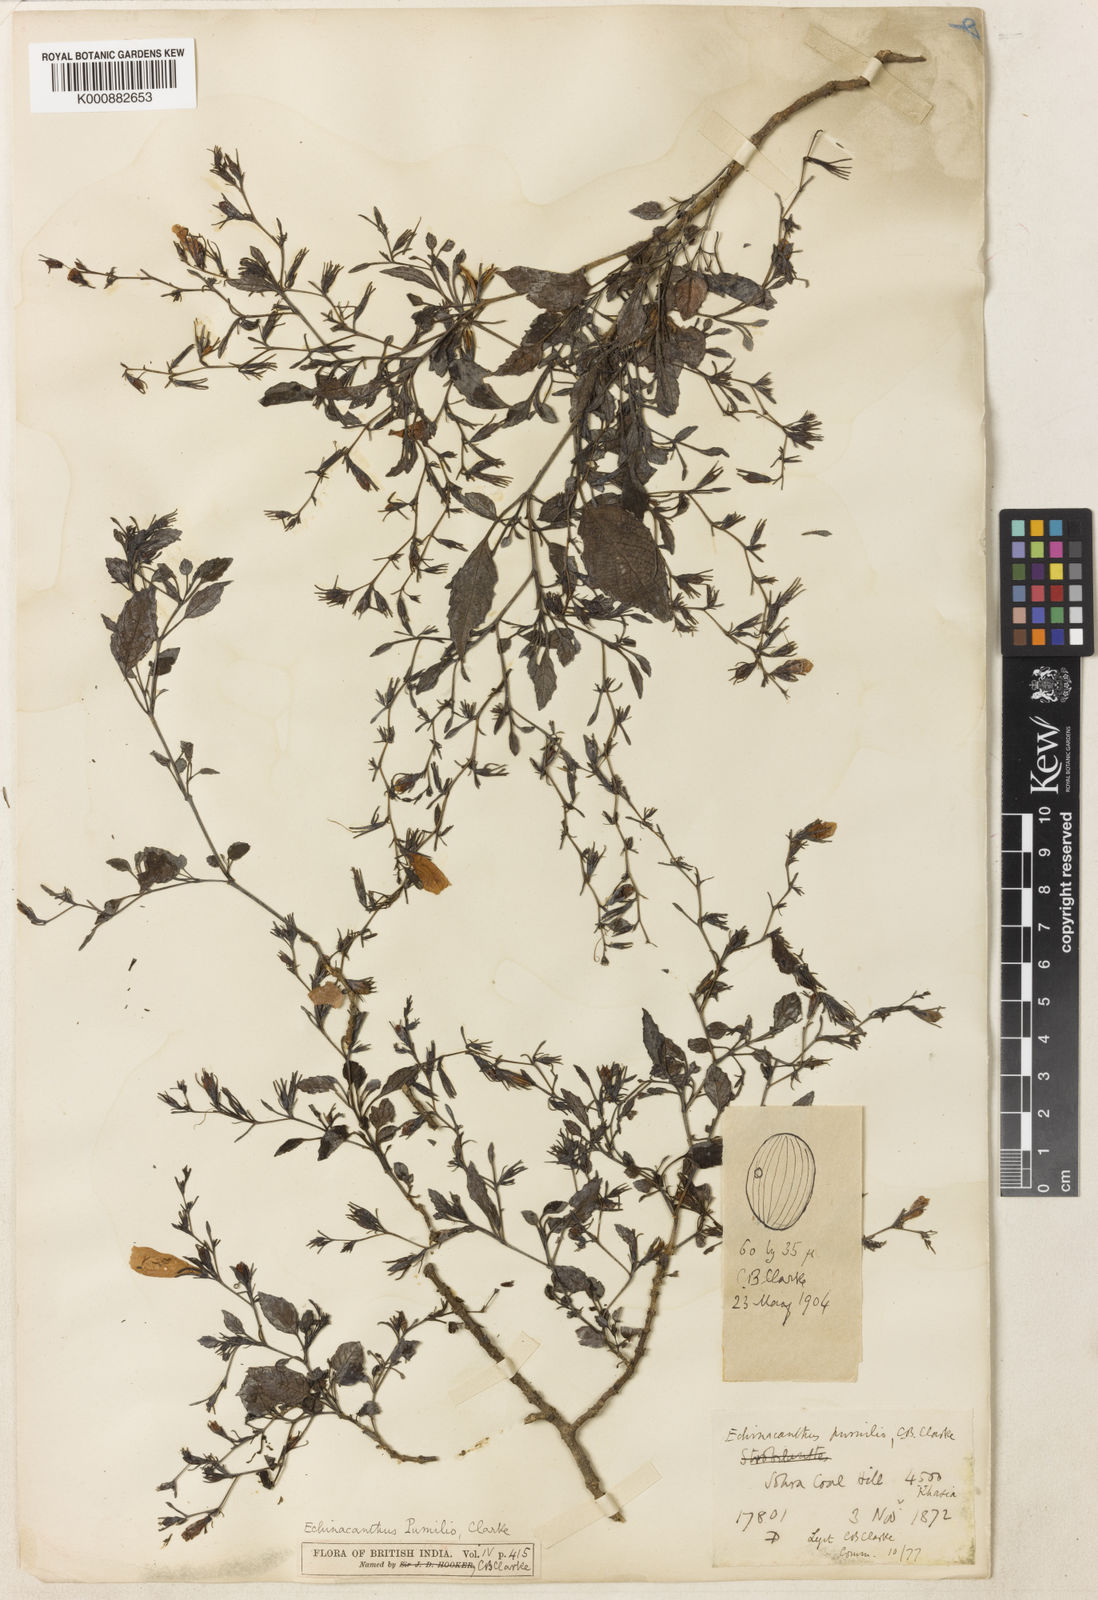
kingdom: Plantae
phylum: Tracheophyta
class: Magnoliopsida
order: Lamiales
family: Acanthaceae
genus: Strobilanthes
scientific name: Strobilanthes violifolia
